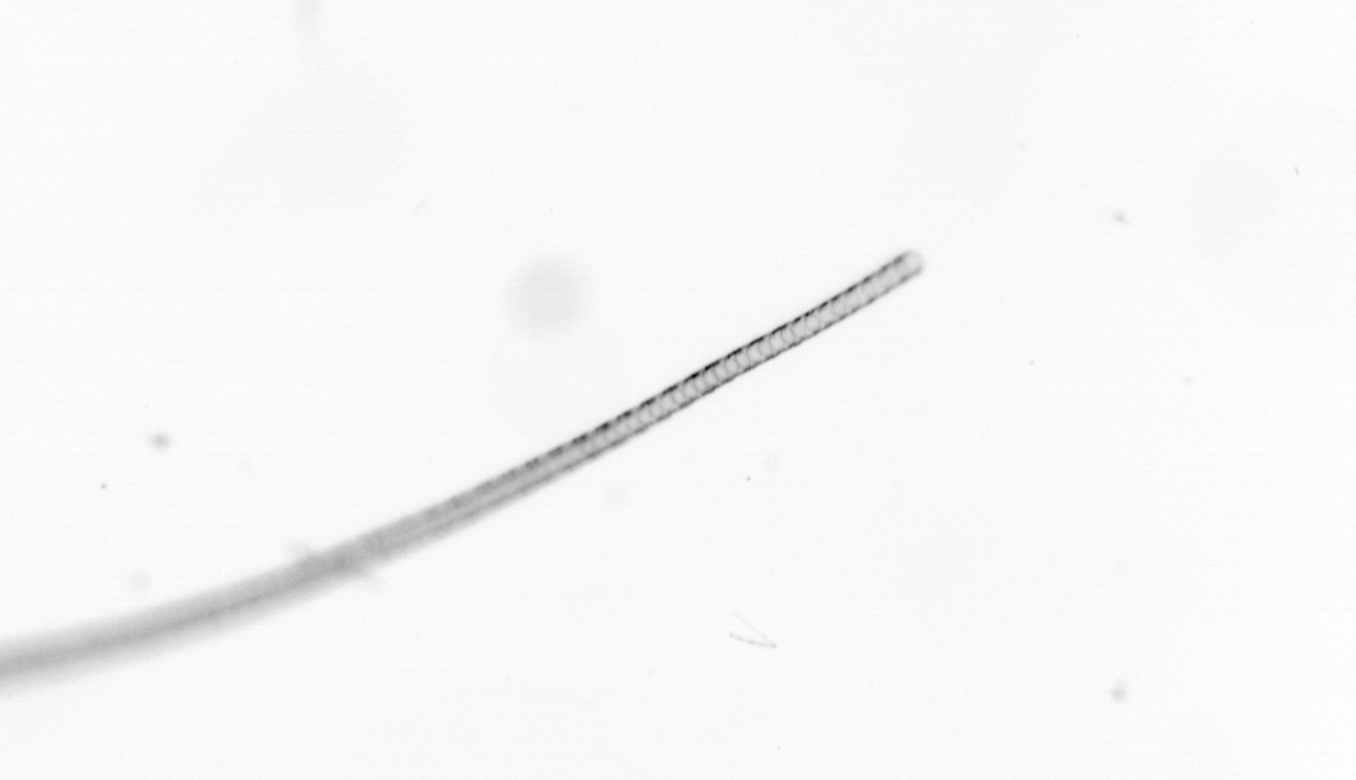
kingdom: Chromista
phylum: Ochrophyta
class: Bacillariophyceae
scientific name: Bacillariophyceae
